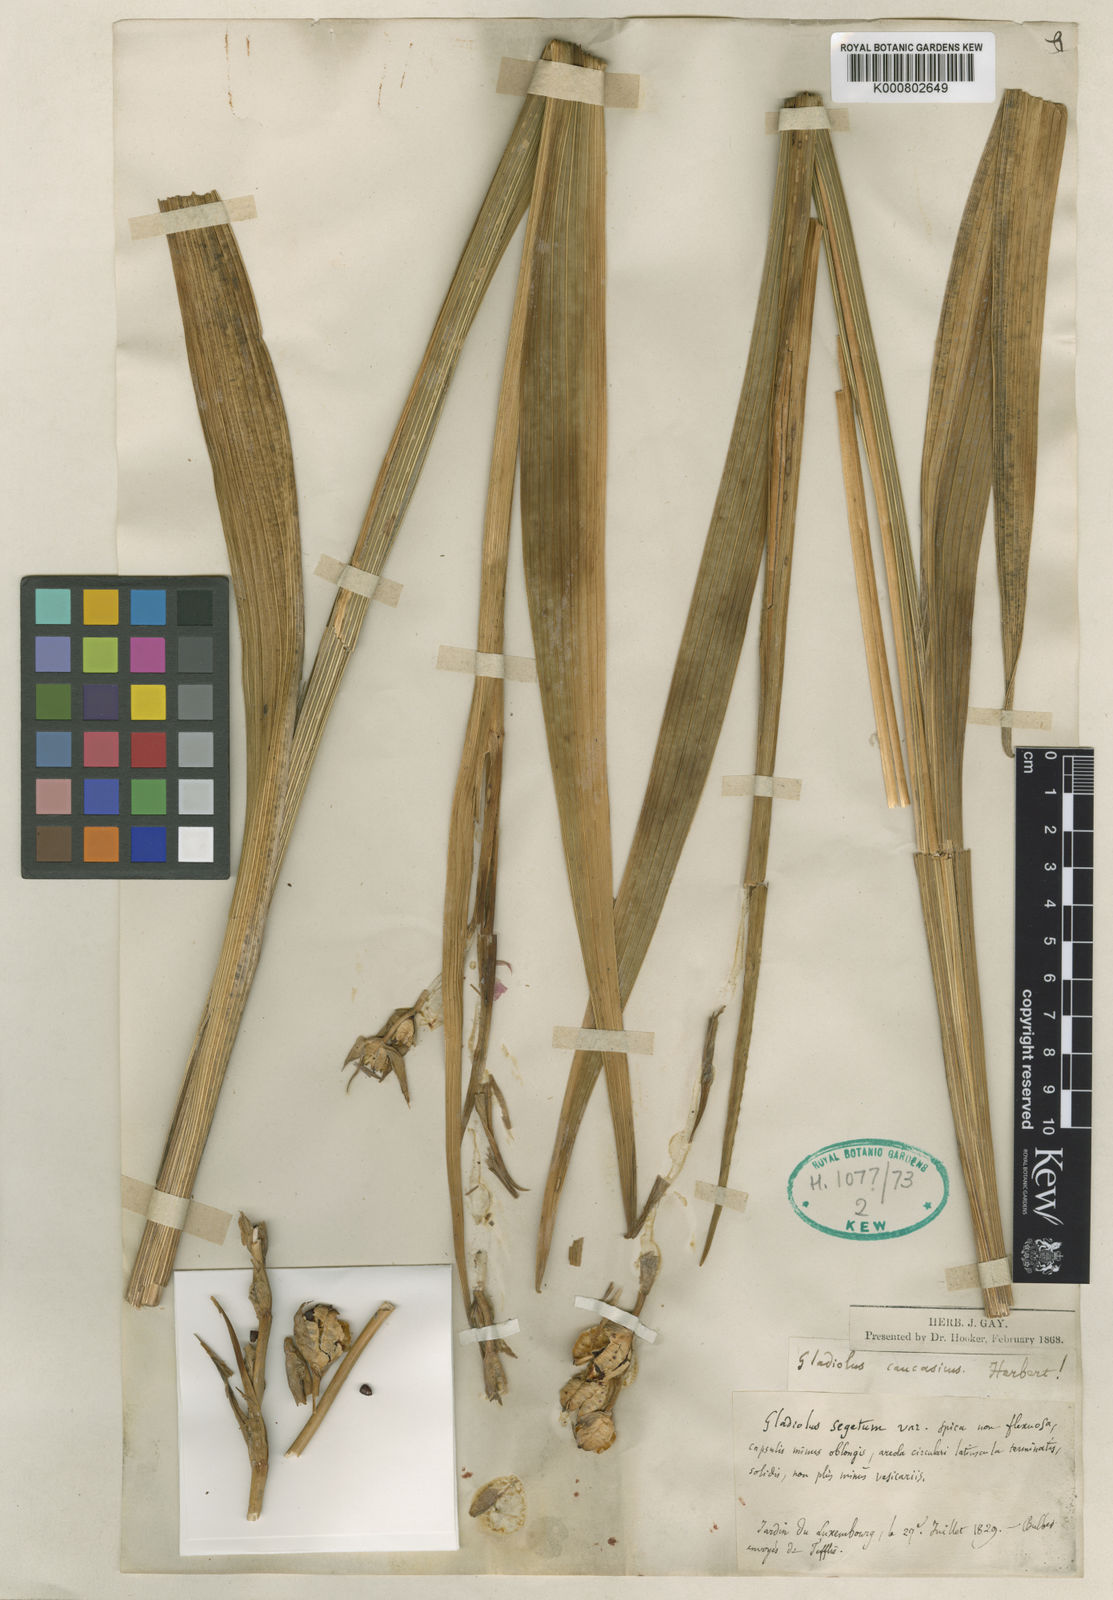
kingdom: Plantae
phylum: Tracheophyta
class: Liliopsida
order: Asparagales
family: Iridaceae
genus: Gladiolus
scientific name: Gladiolus italicus
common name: Field gladiolus
